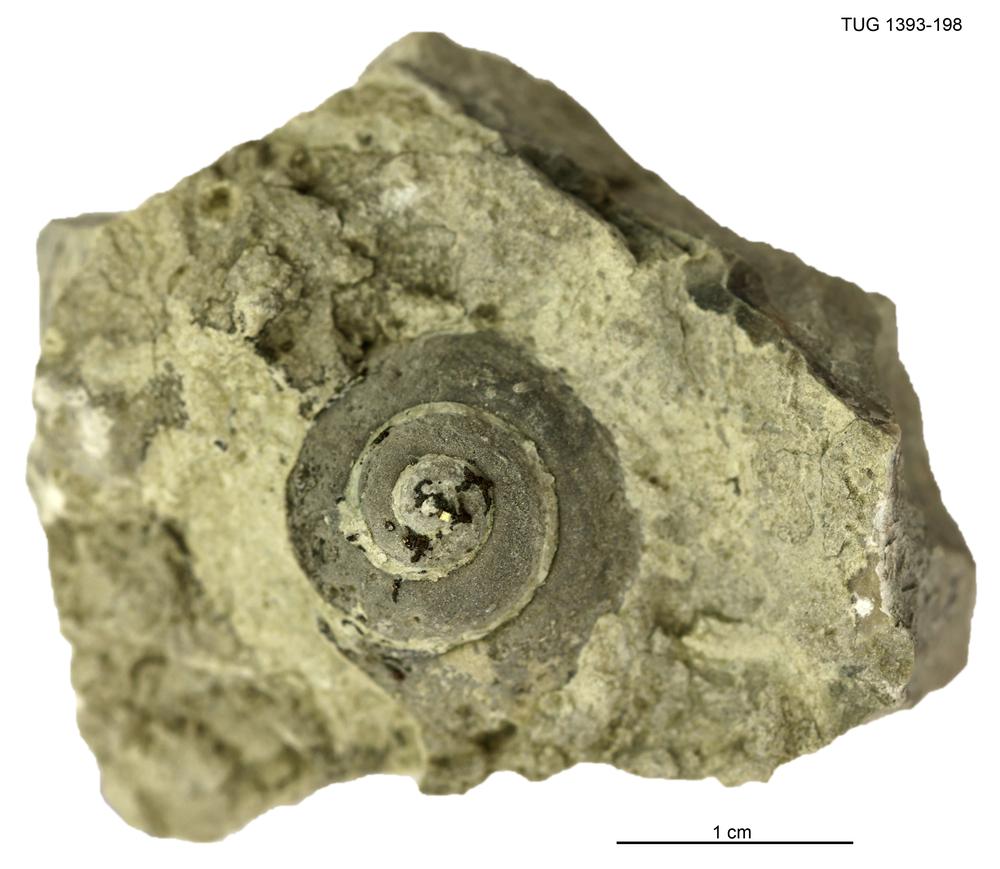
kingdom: Animalia
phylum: Mollusca
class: Gastropoda
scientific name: Gastropoda
